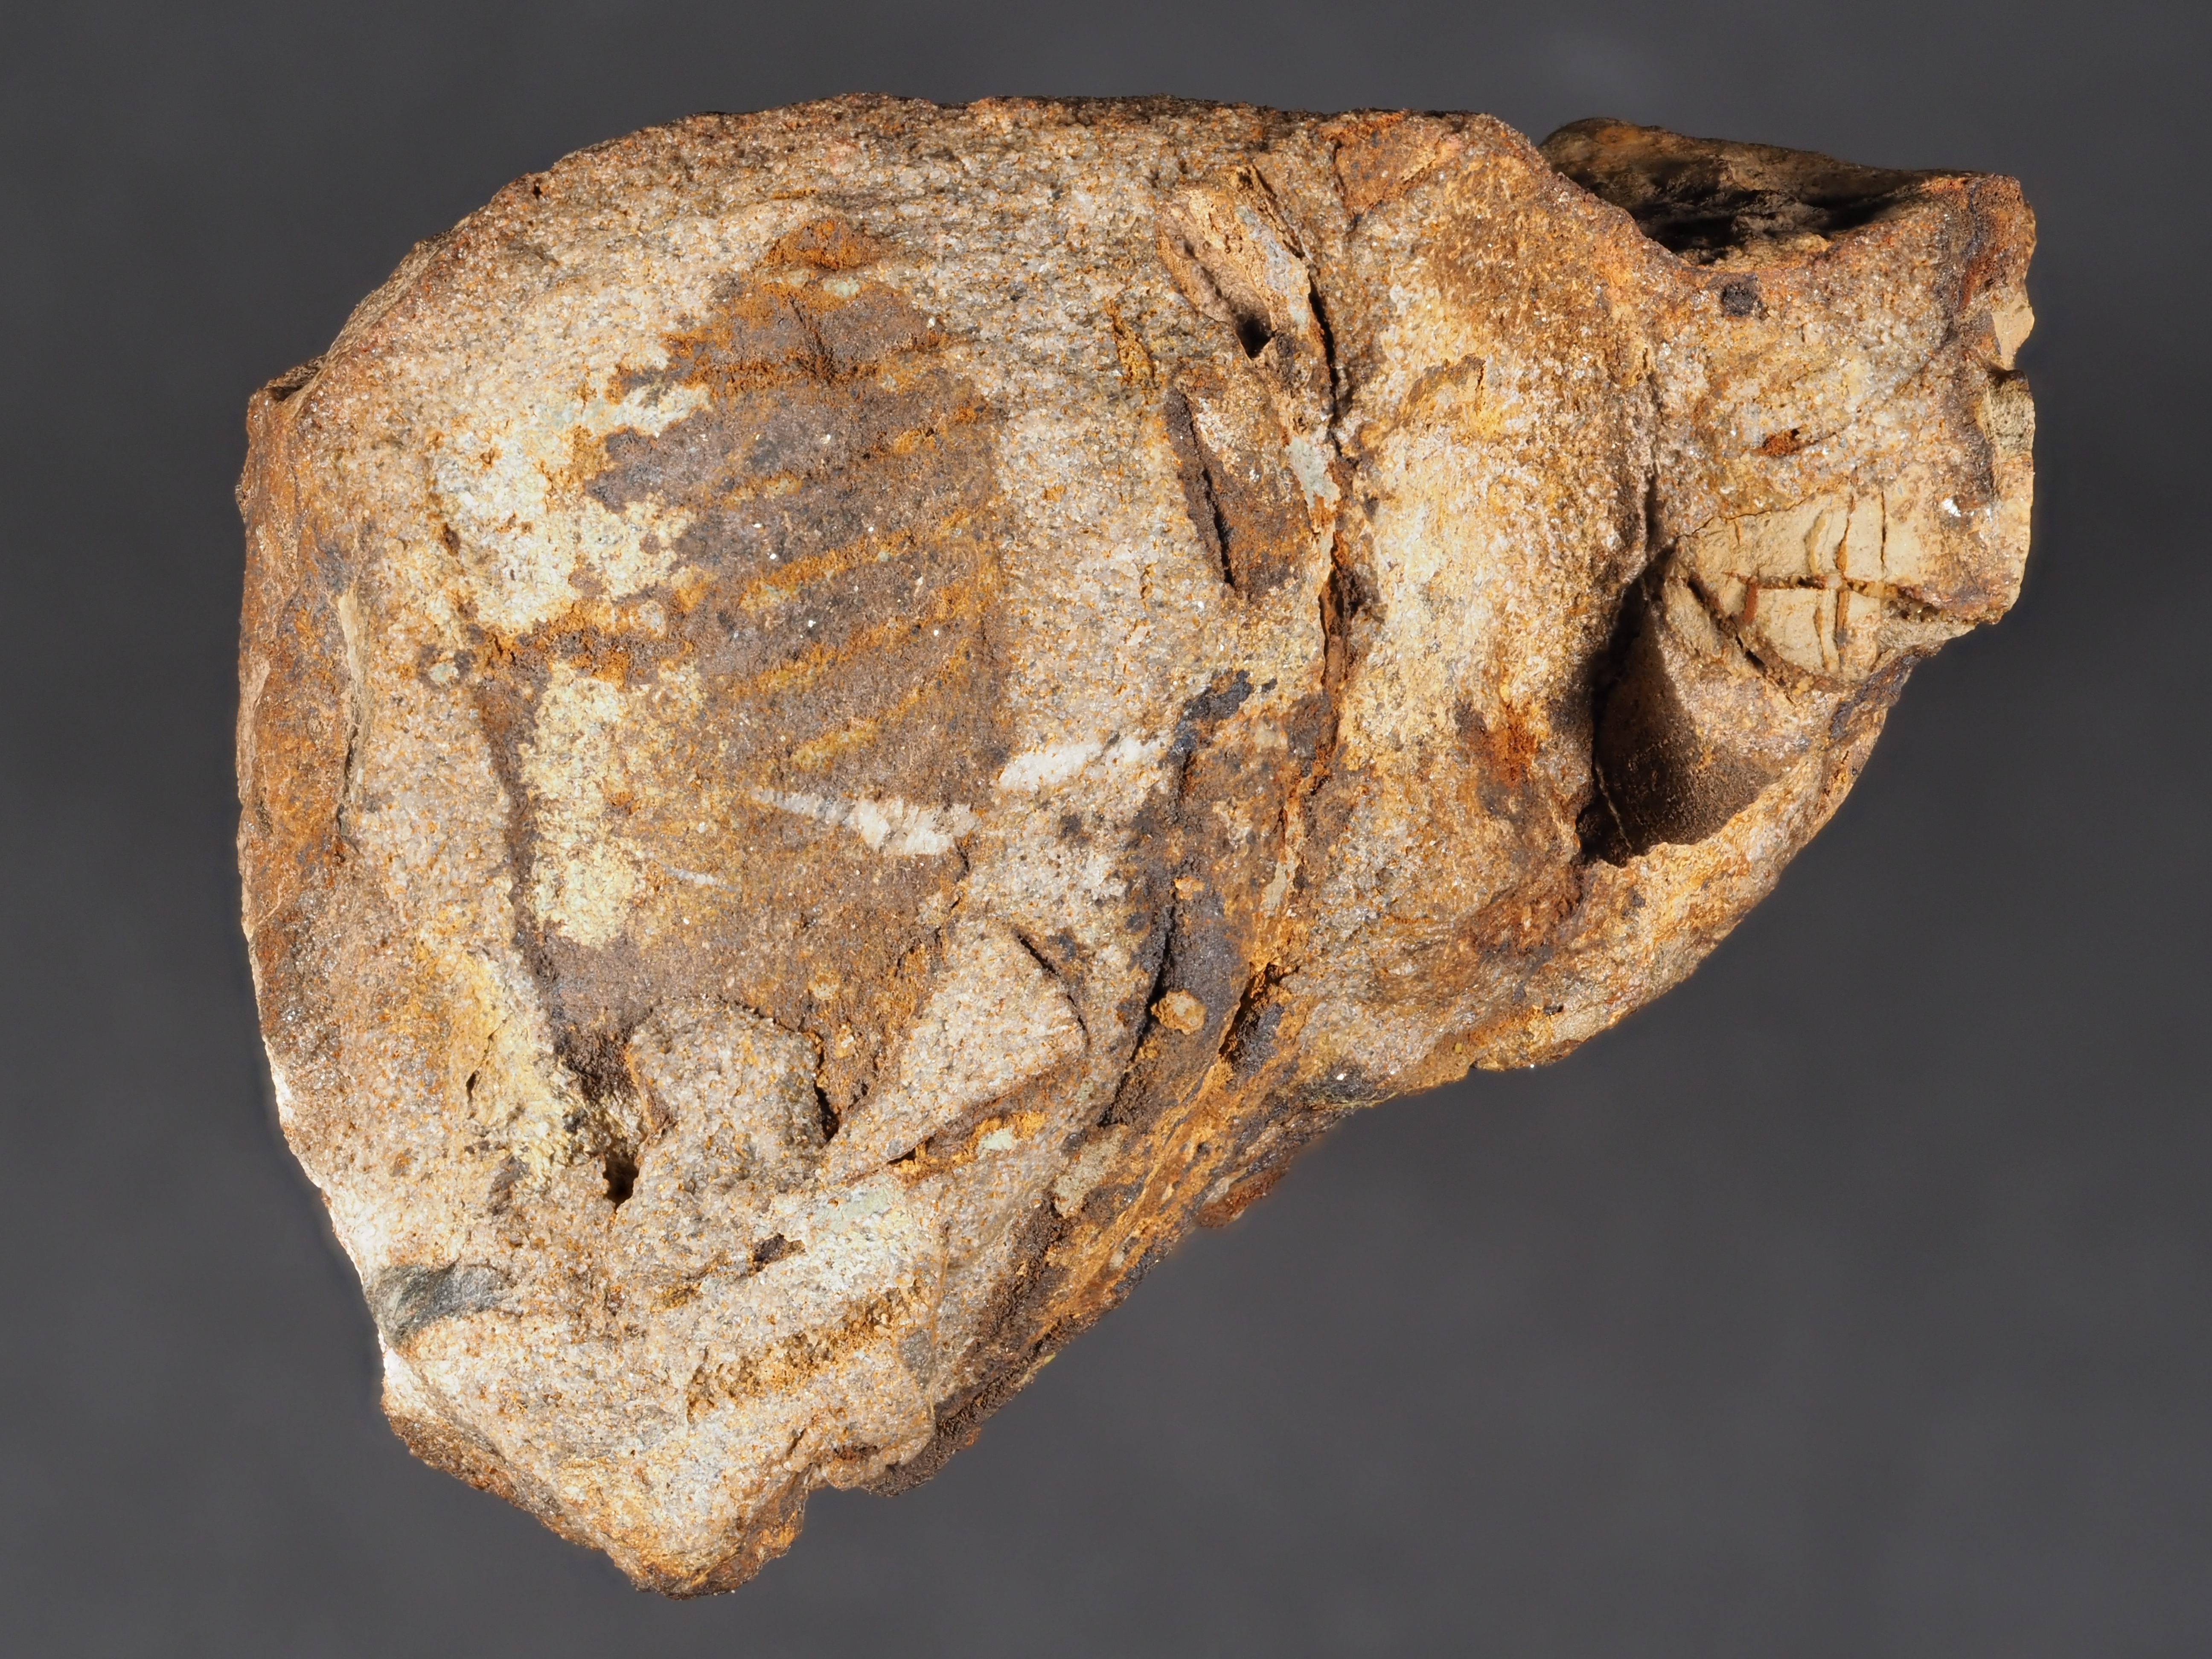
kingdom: Animalia
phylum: Arthropoda
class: Trilobita
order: Phacopida
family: Homalonotidae
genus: Digonus
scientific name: Digonus
